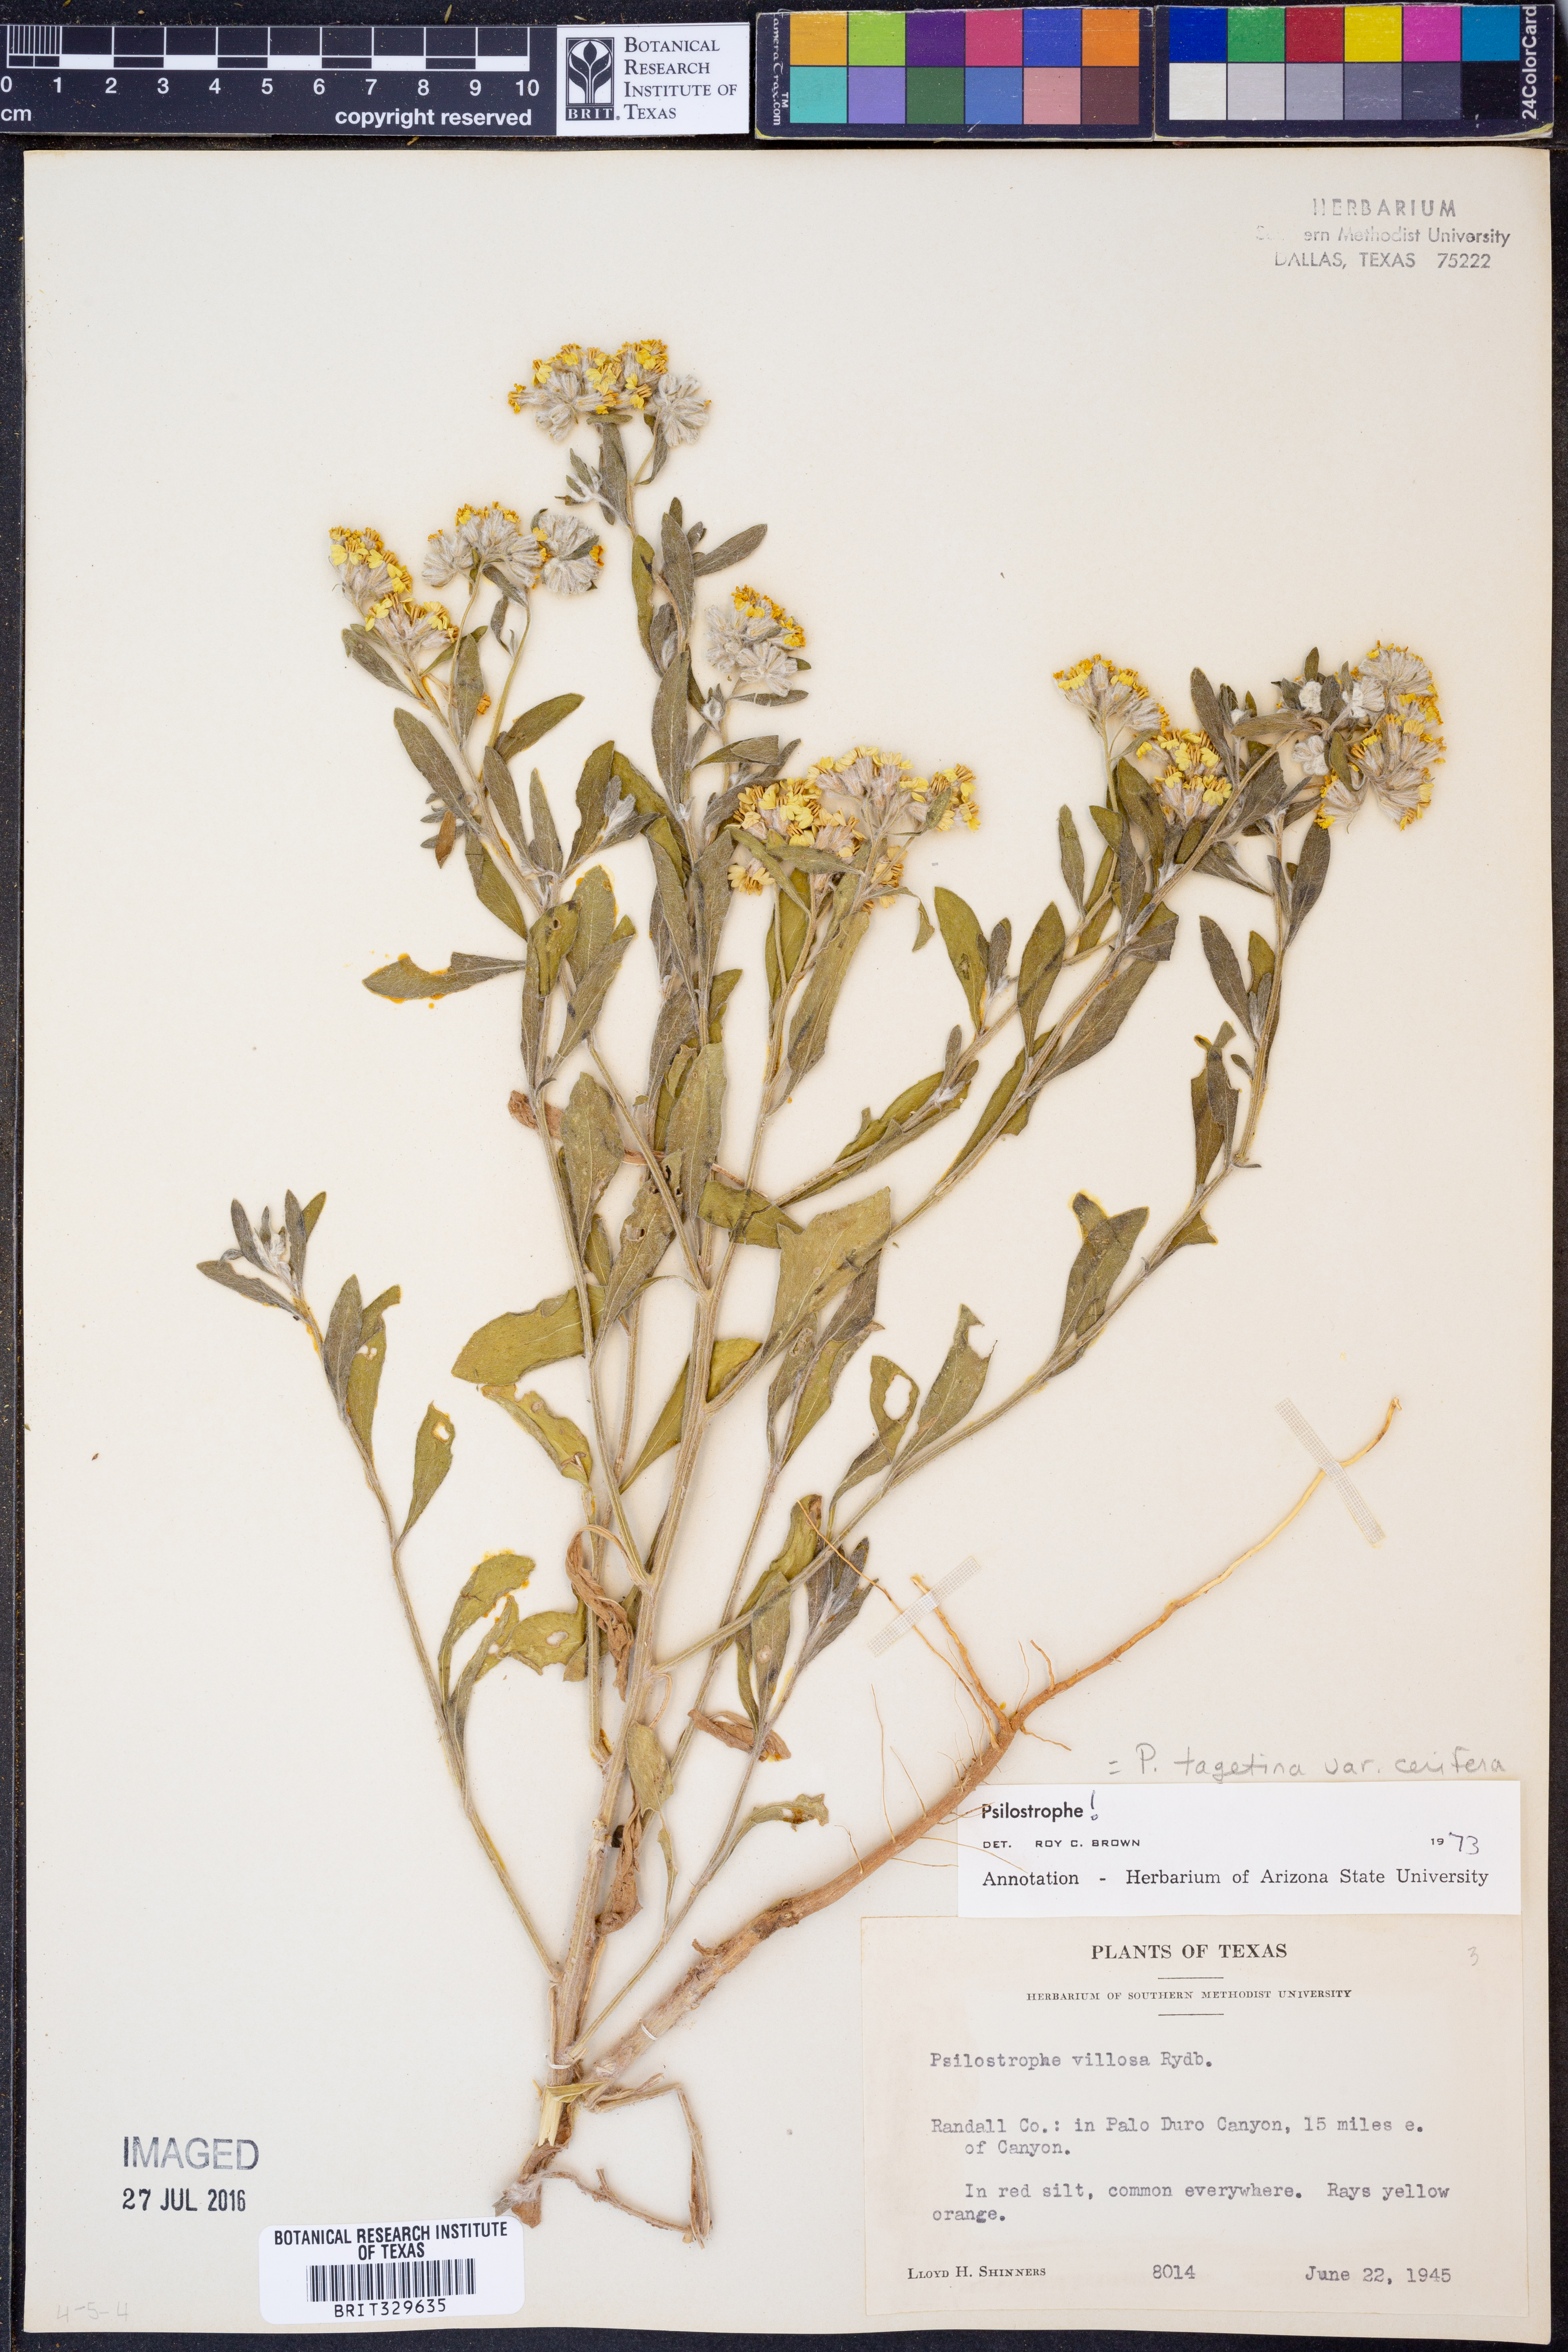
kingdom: Plantae
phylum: Tracheophyta
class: Magnoliopsida
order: Asterales
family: Asteraceae
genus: Psilostrophe
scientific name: Psilostrophe villosa
